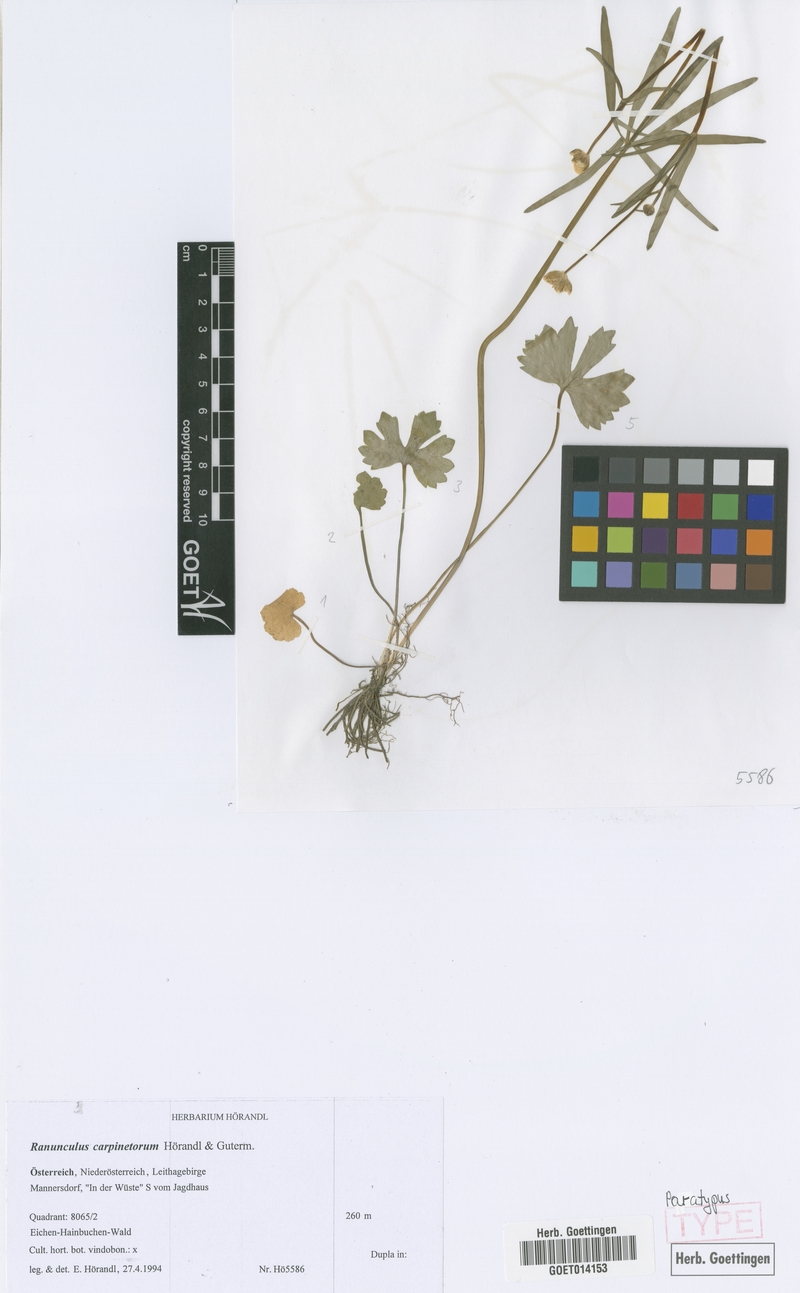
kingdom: Plantae
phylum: Tracheophyta
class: Magnoliopsida
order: Ranunculales
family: Ranunculaceae
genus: Ranunculus
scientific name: Ranunculus carpinetorum
